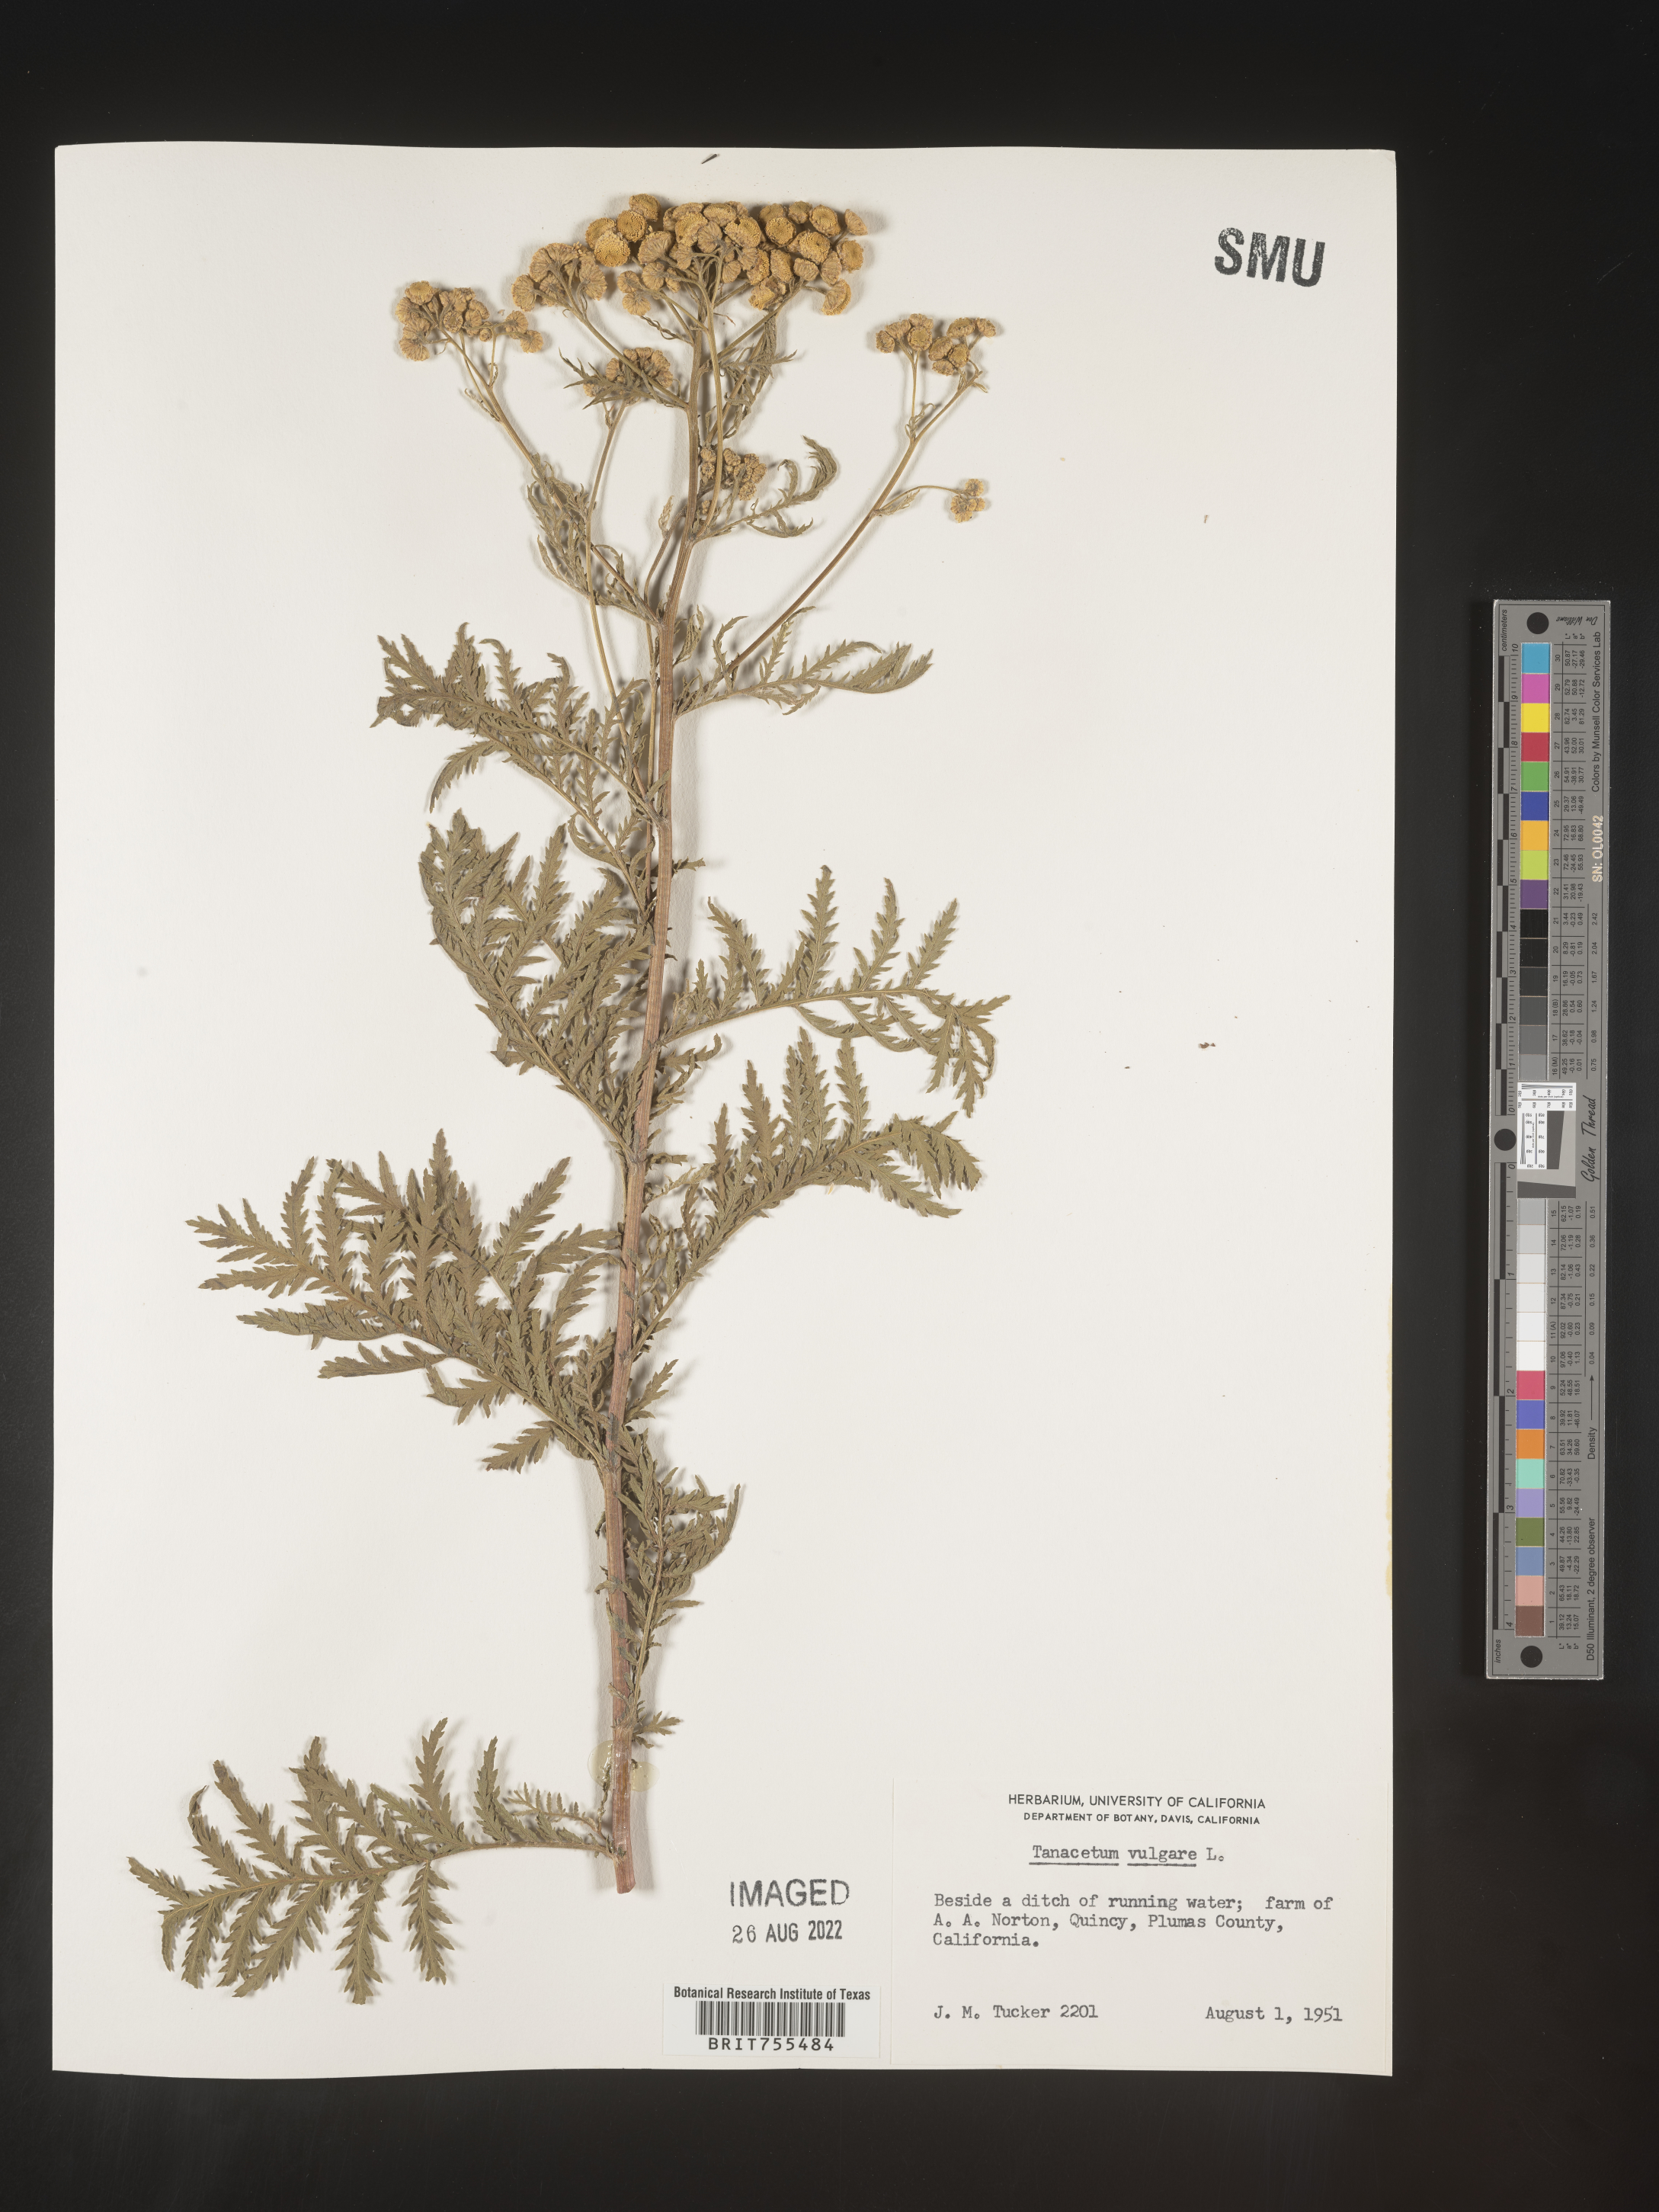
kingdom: Plantae
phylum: Tracheophyta
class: Magnoliopsida
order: Asterales
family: Asteraceae
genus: Tanacetum
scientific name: Tanacetum vulgare
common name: Common tansy
